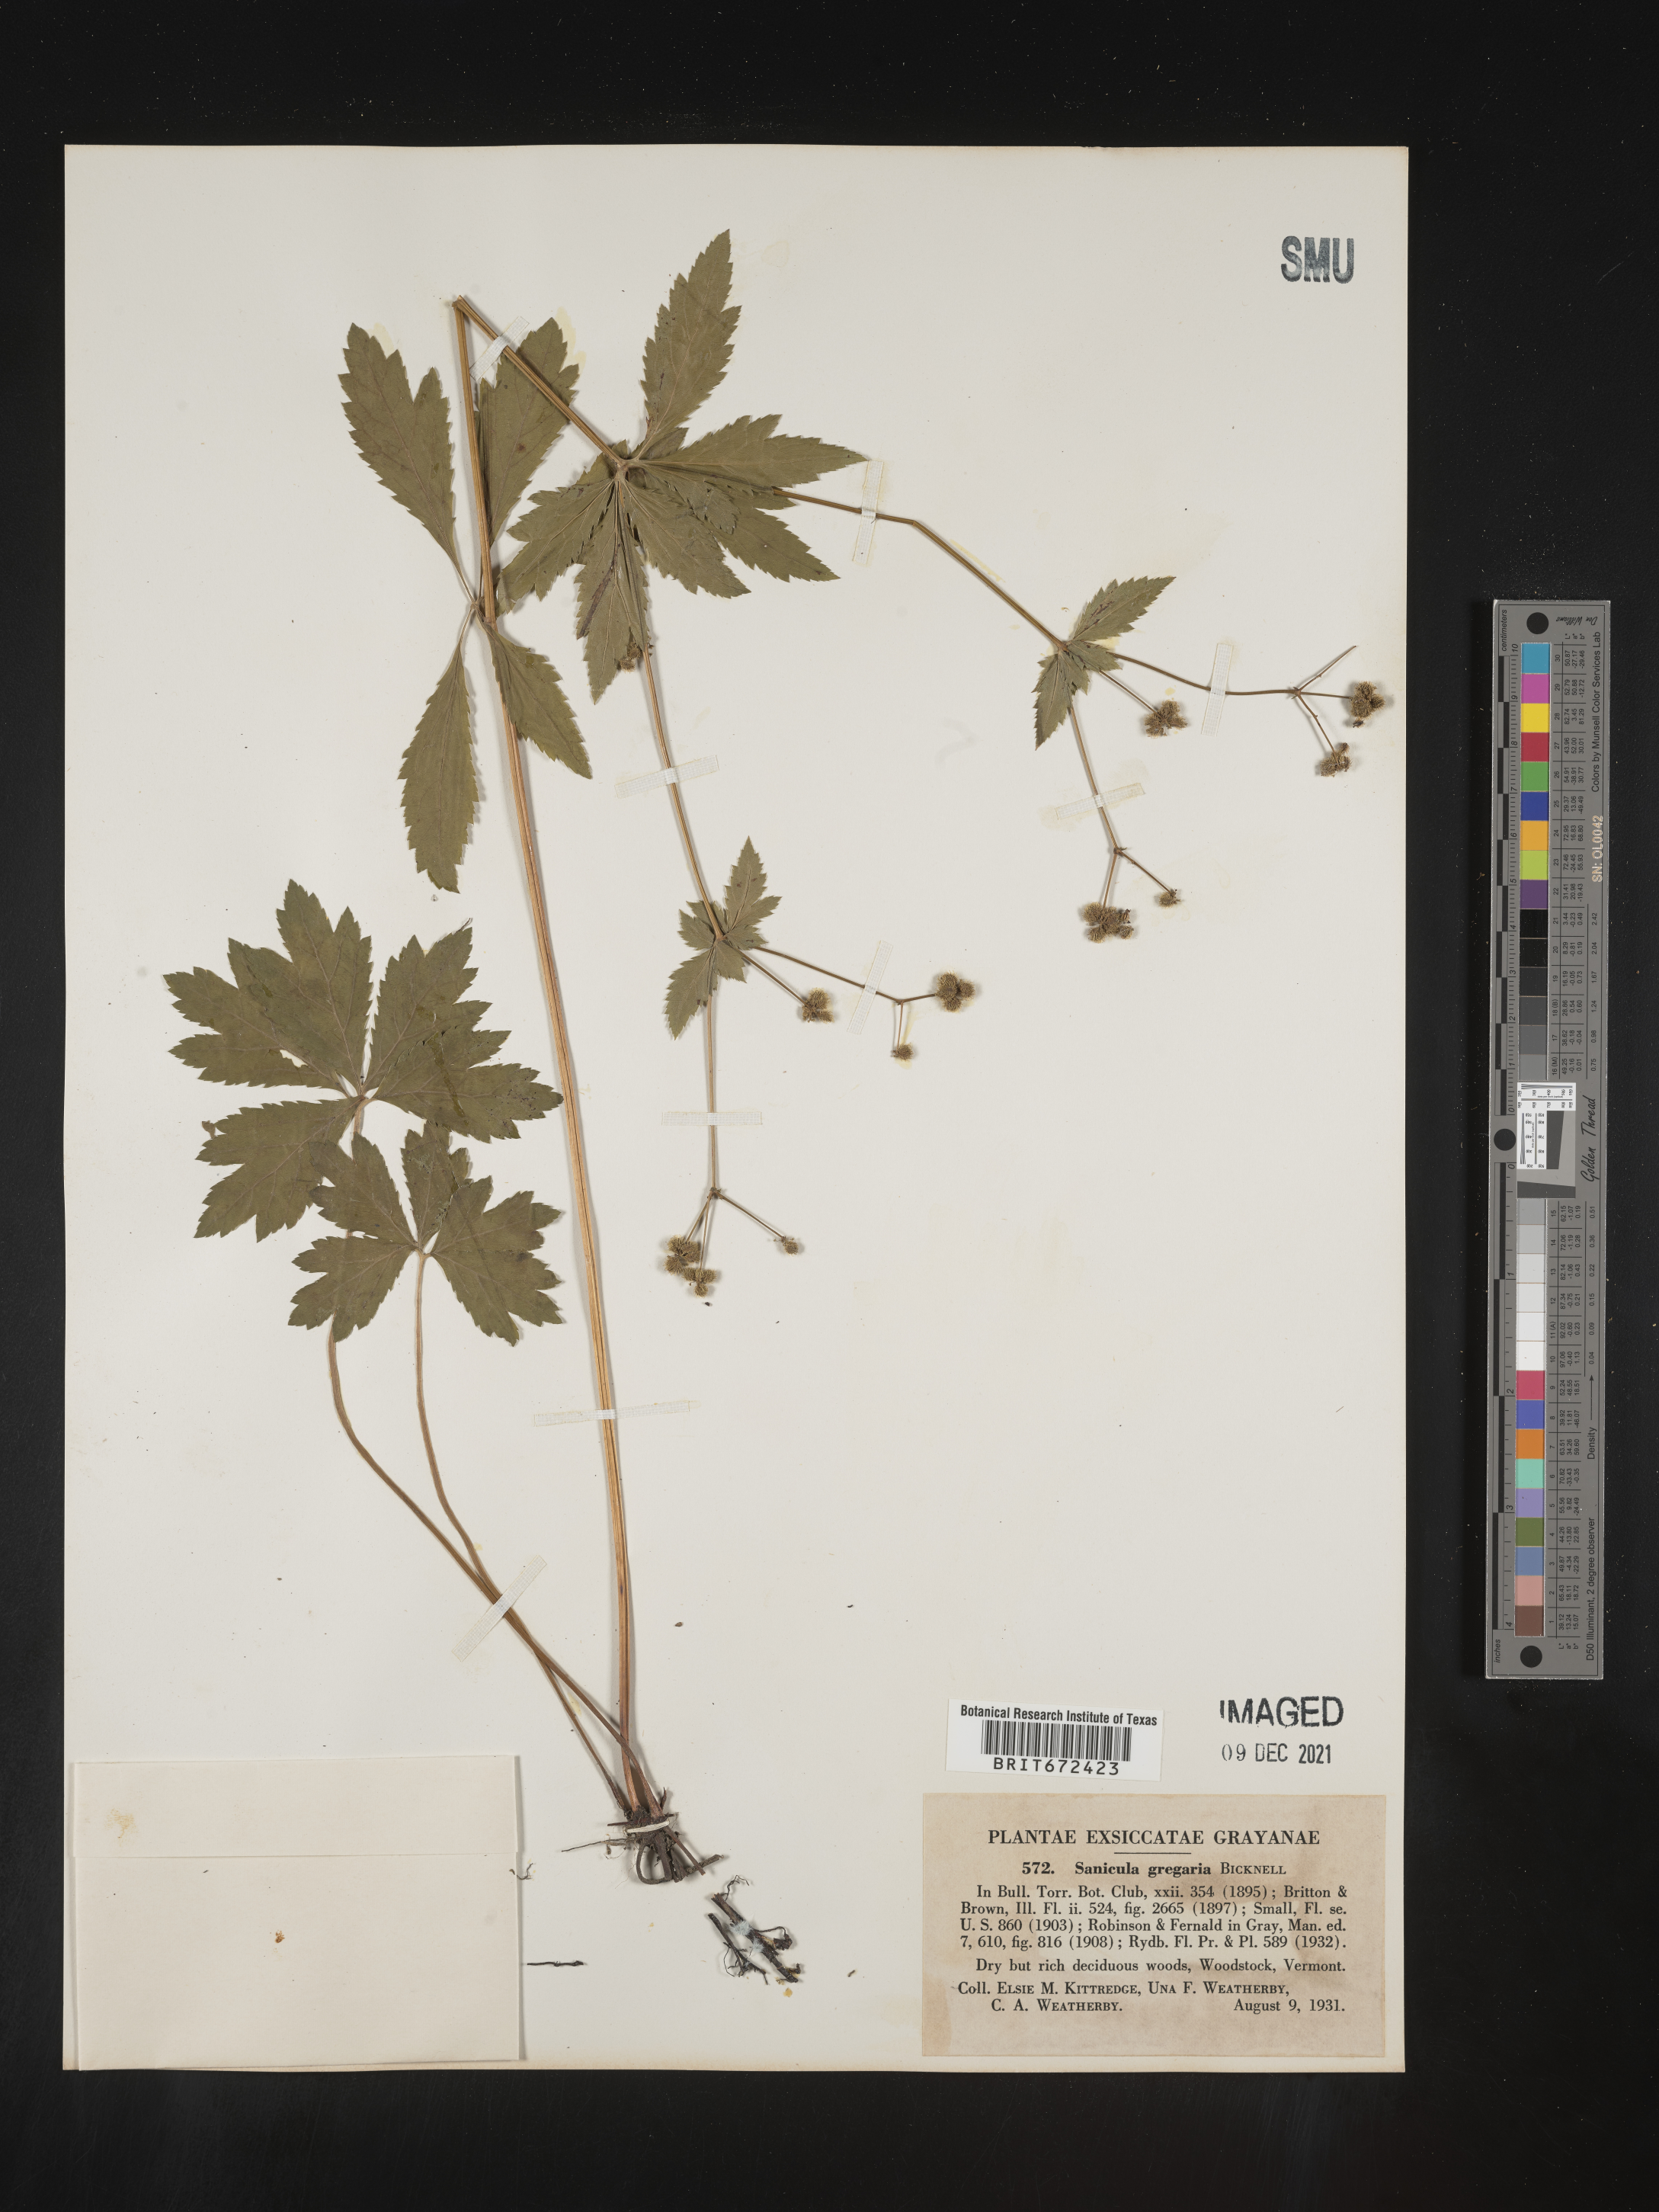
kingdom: Plantae
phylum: Tracheophyta
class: Magnoliopsida
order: Apiales
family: Apiaceae
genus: Sanicula
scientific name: Sanicula odorata
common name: Cluster sanicle
